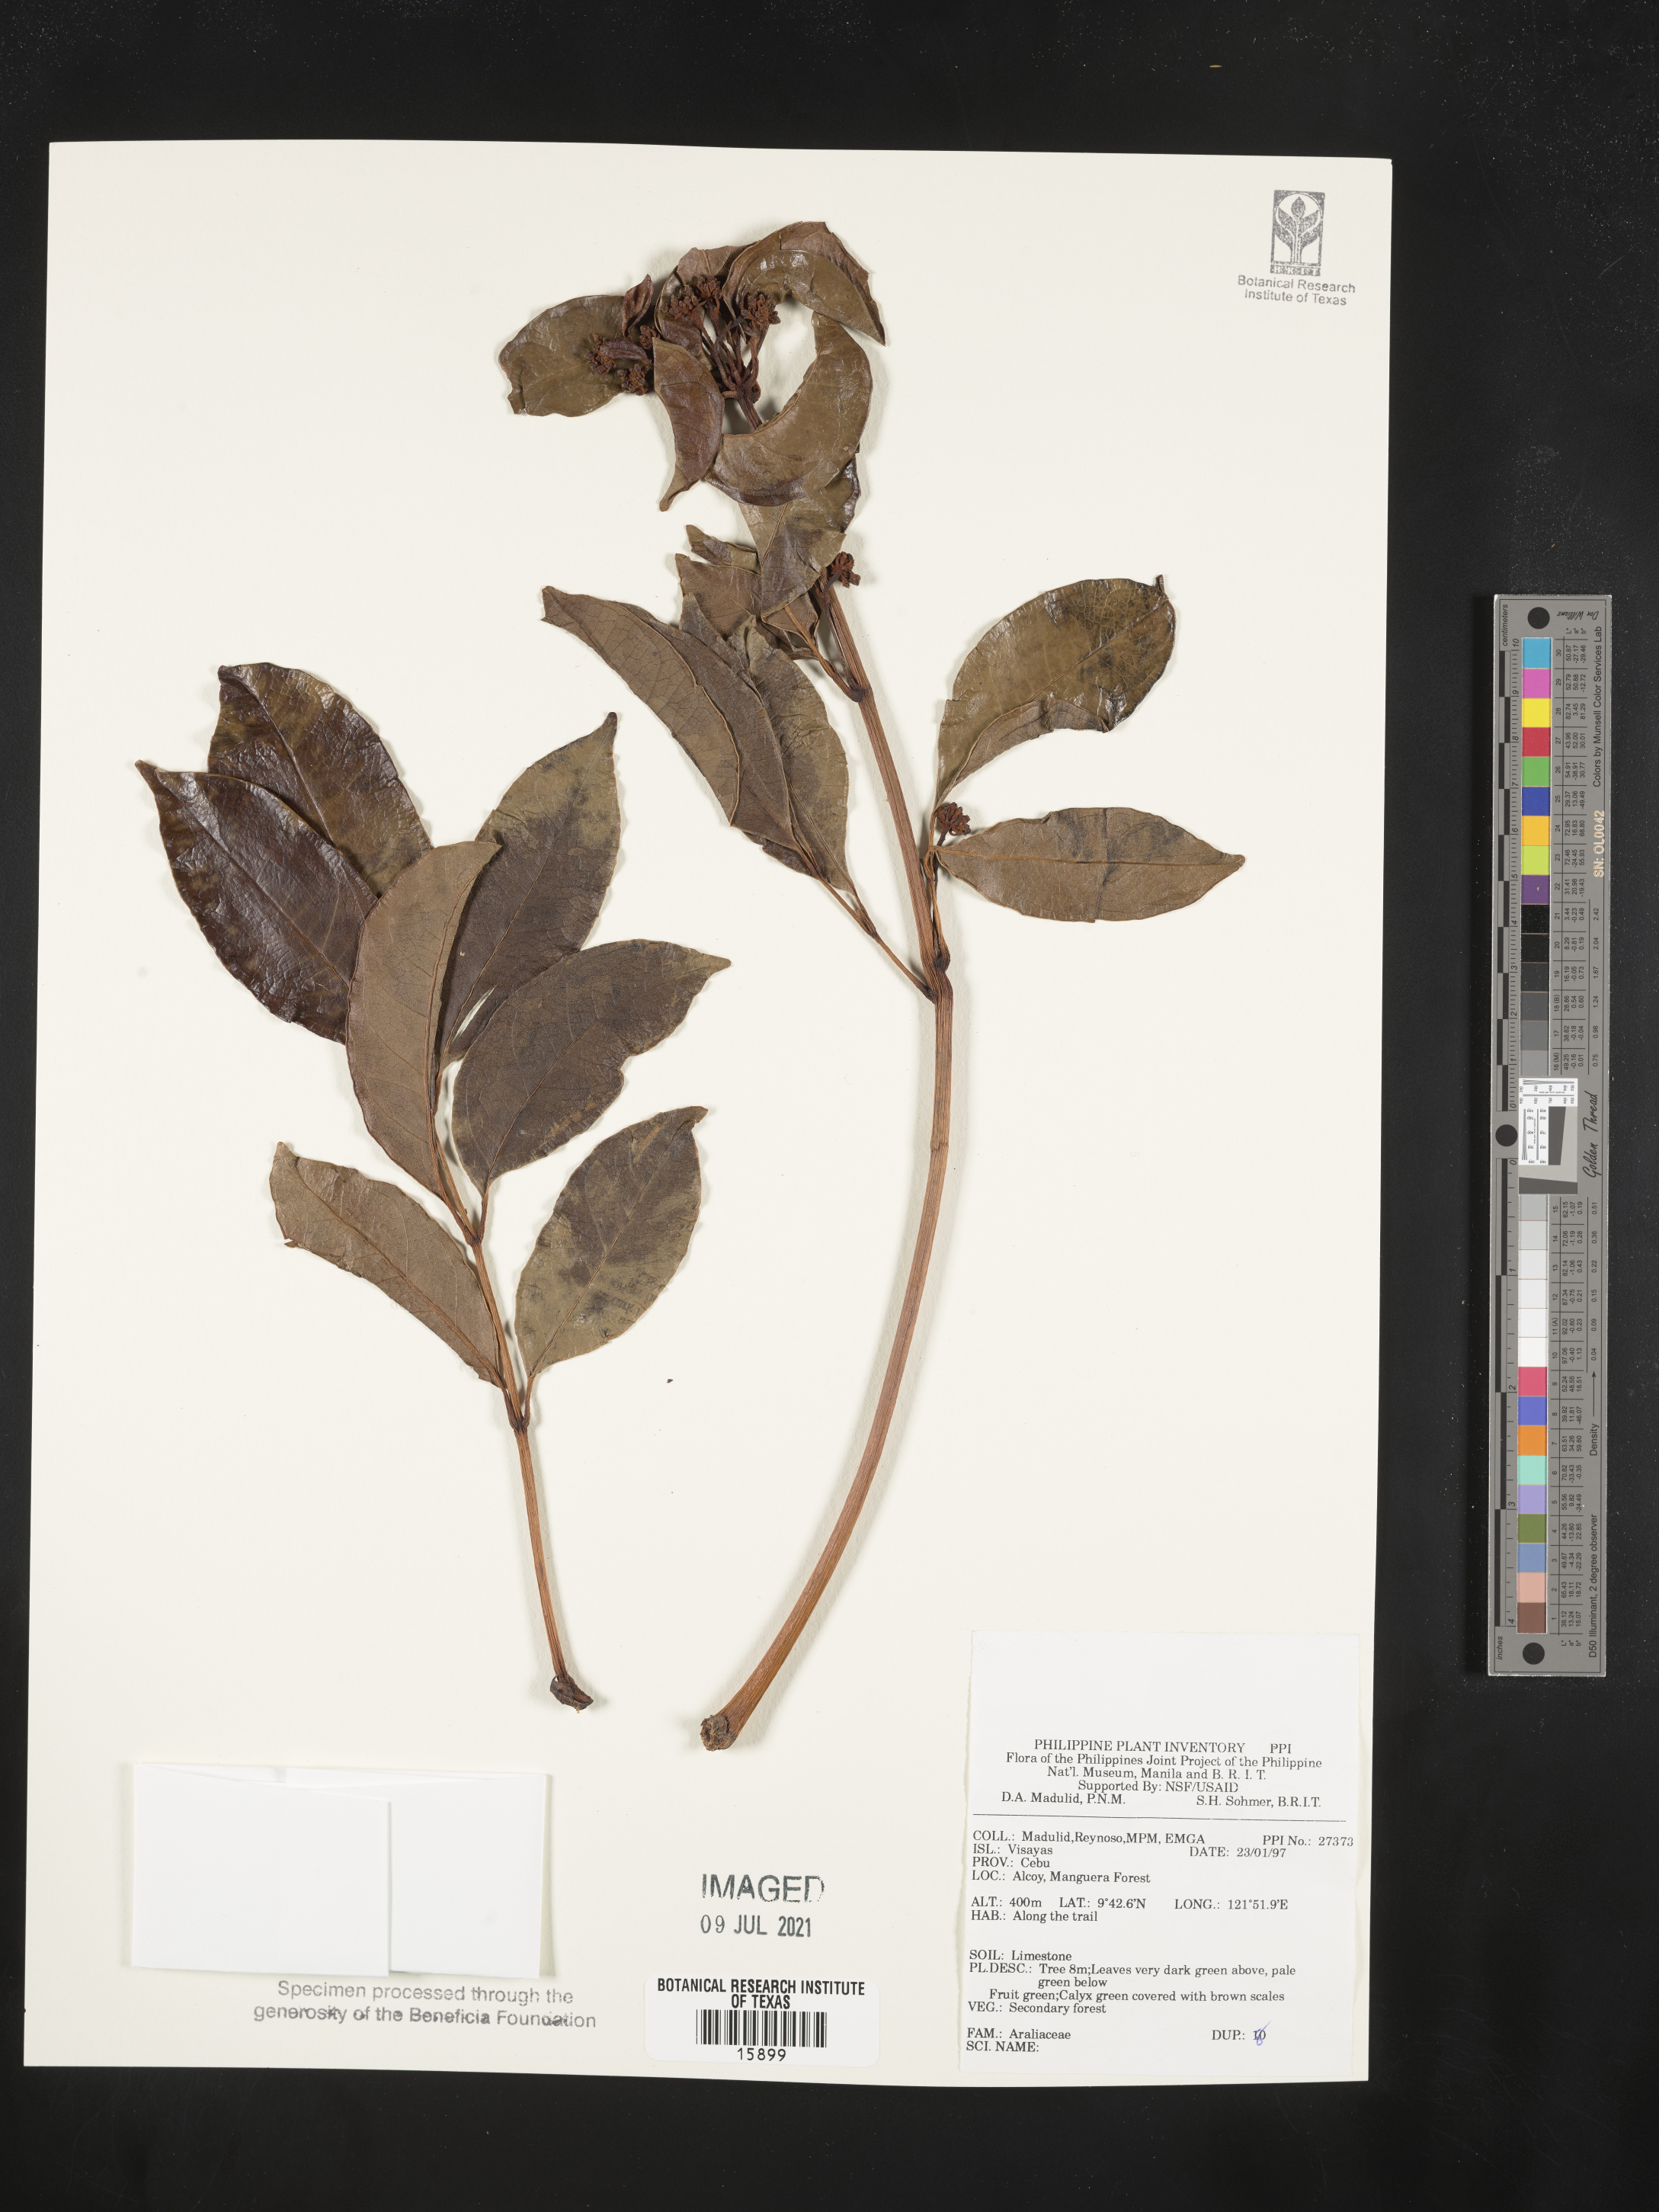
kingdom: Plantae
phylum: Tracheophyta
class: Magnoliopsida
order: Apiales
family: Araliaceae
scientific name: Araliaceae
